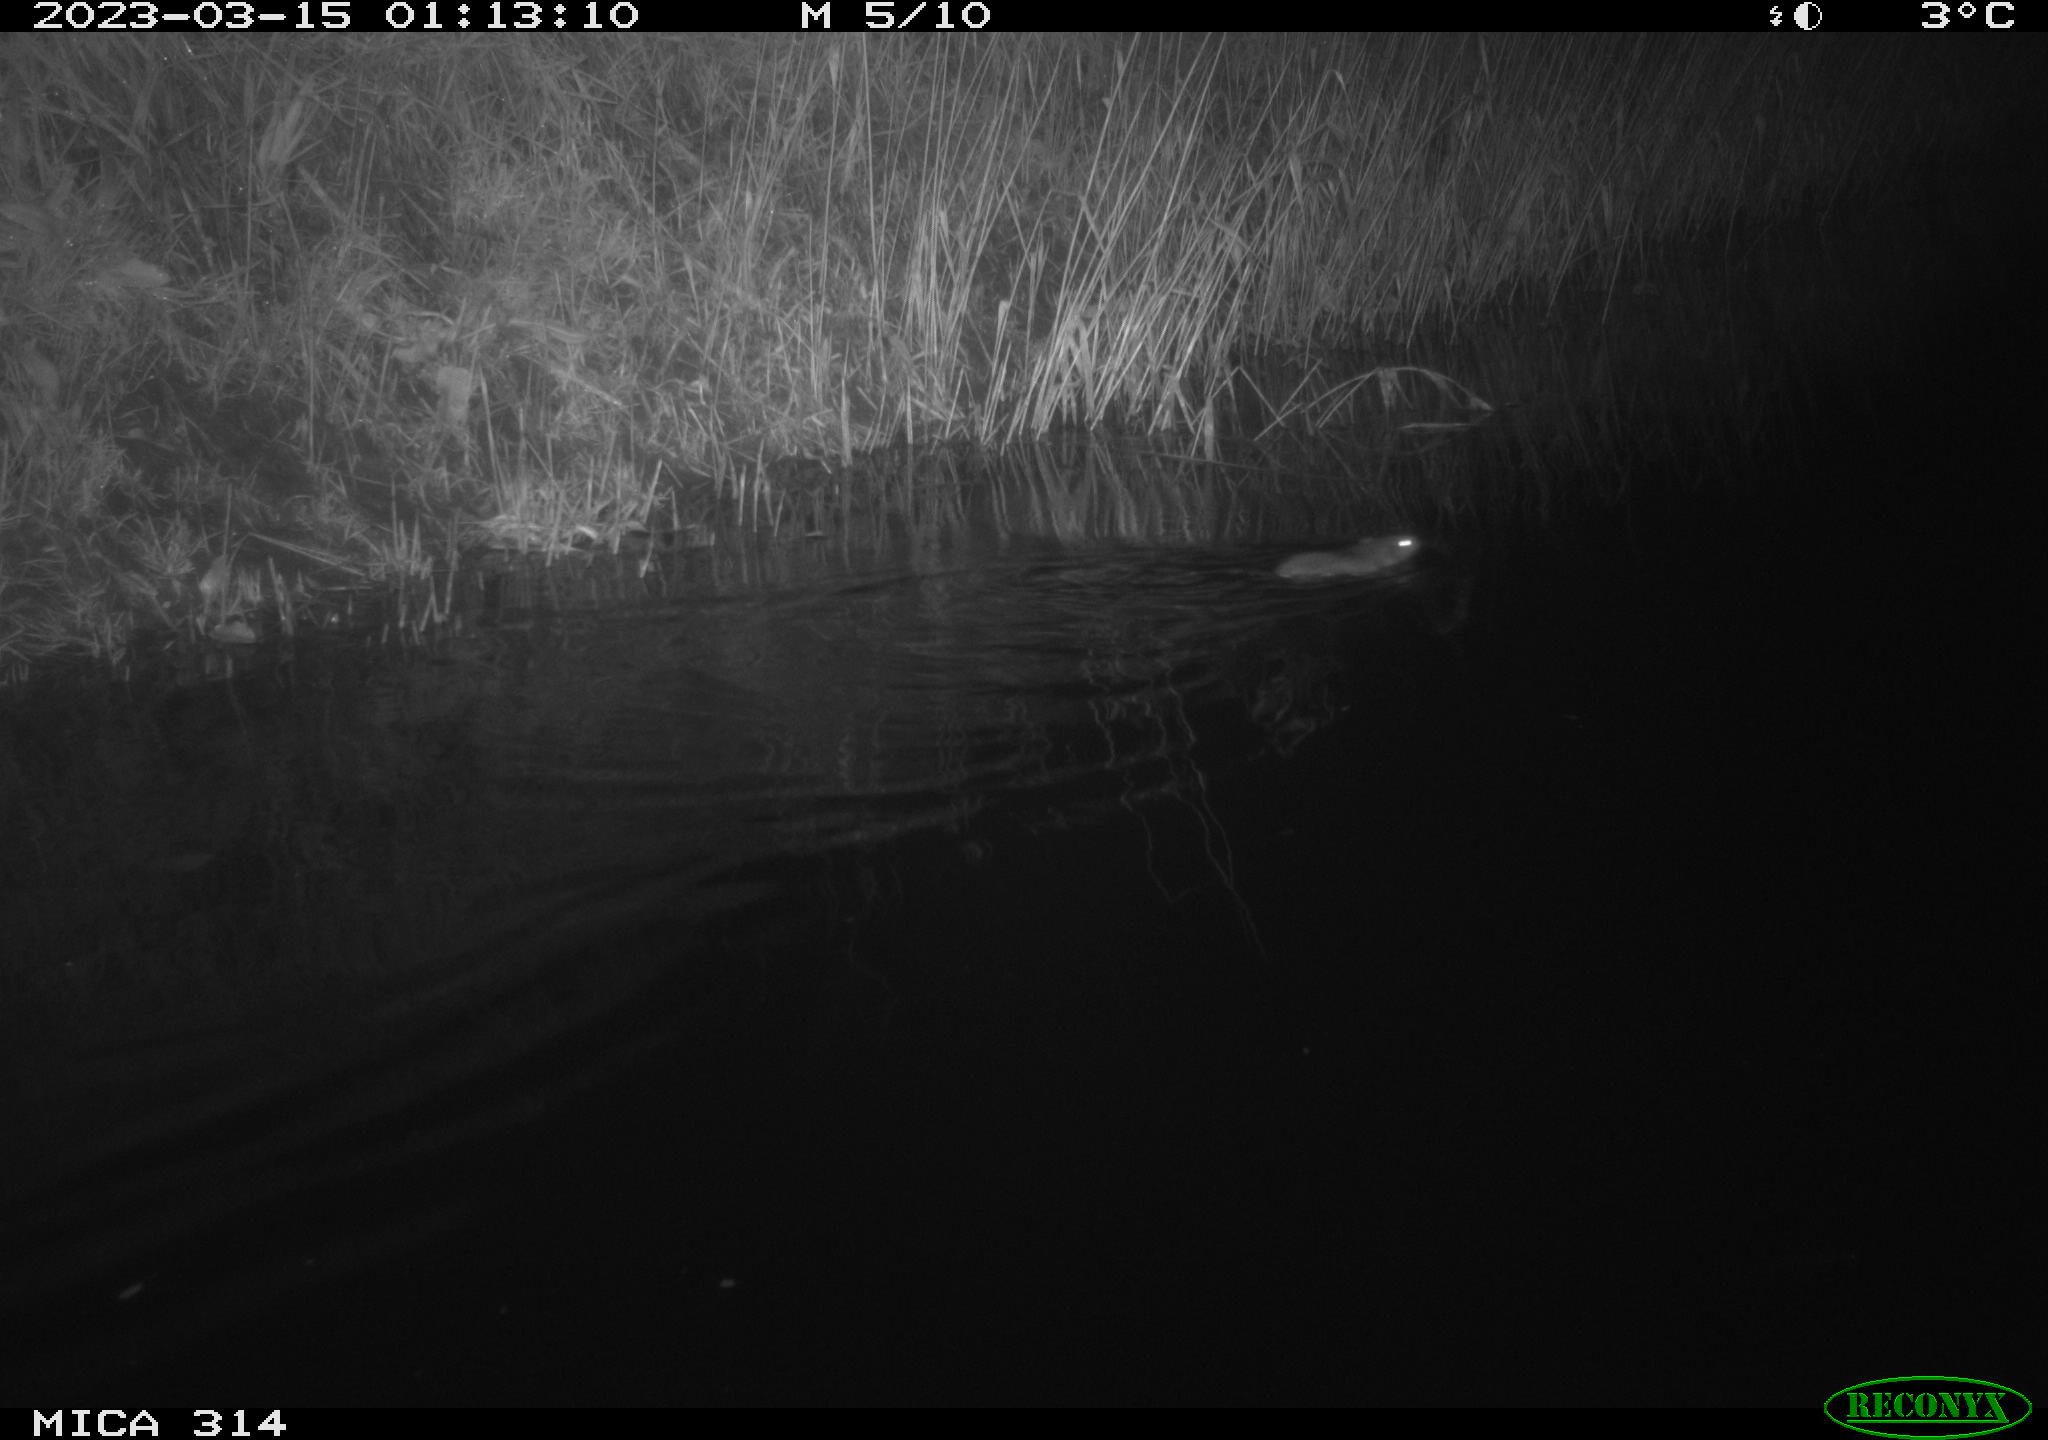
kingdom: Animalia
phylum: Chordata
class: Mammalia
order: Rodentia
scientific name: Rodentia
